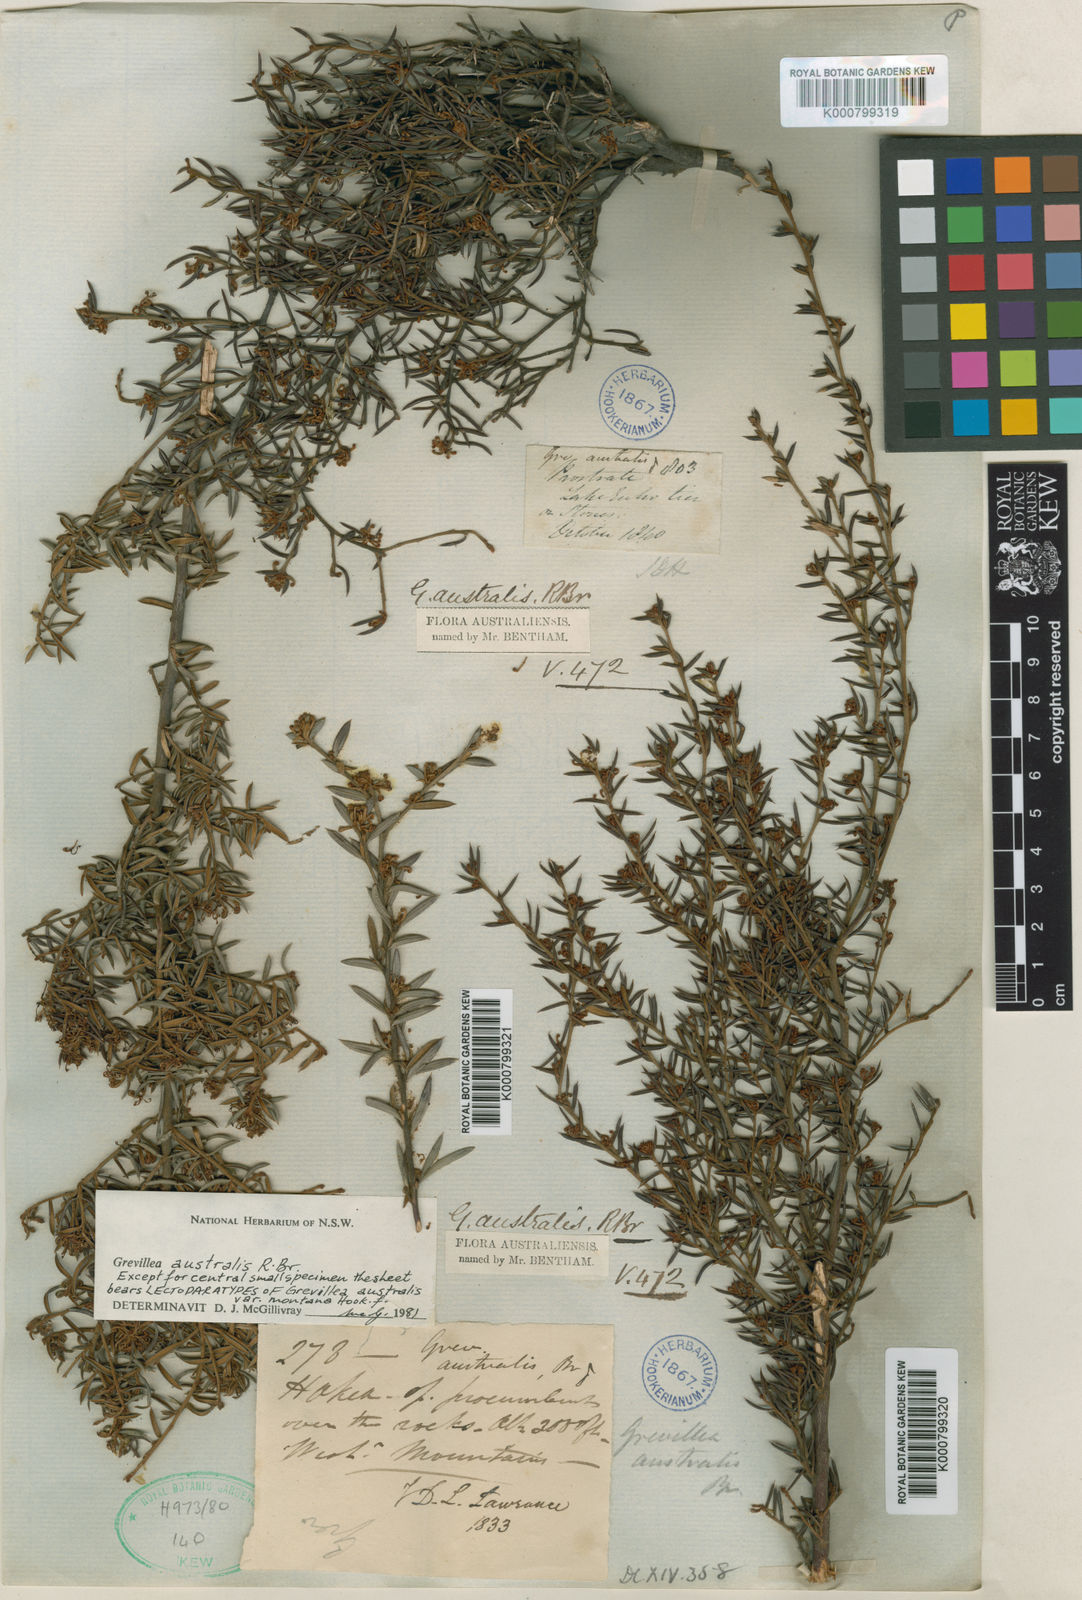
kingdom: Plantae
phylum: Tracheophyta
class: Magnoliopsida
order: Proteales
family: Proteaceae
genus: Grevillea
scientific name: Grevillea australis
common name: Alpine grevillea
